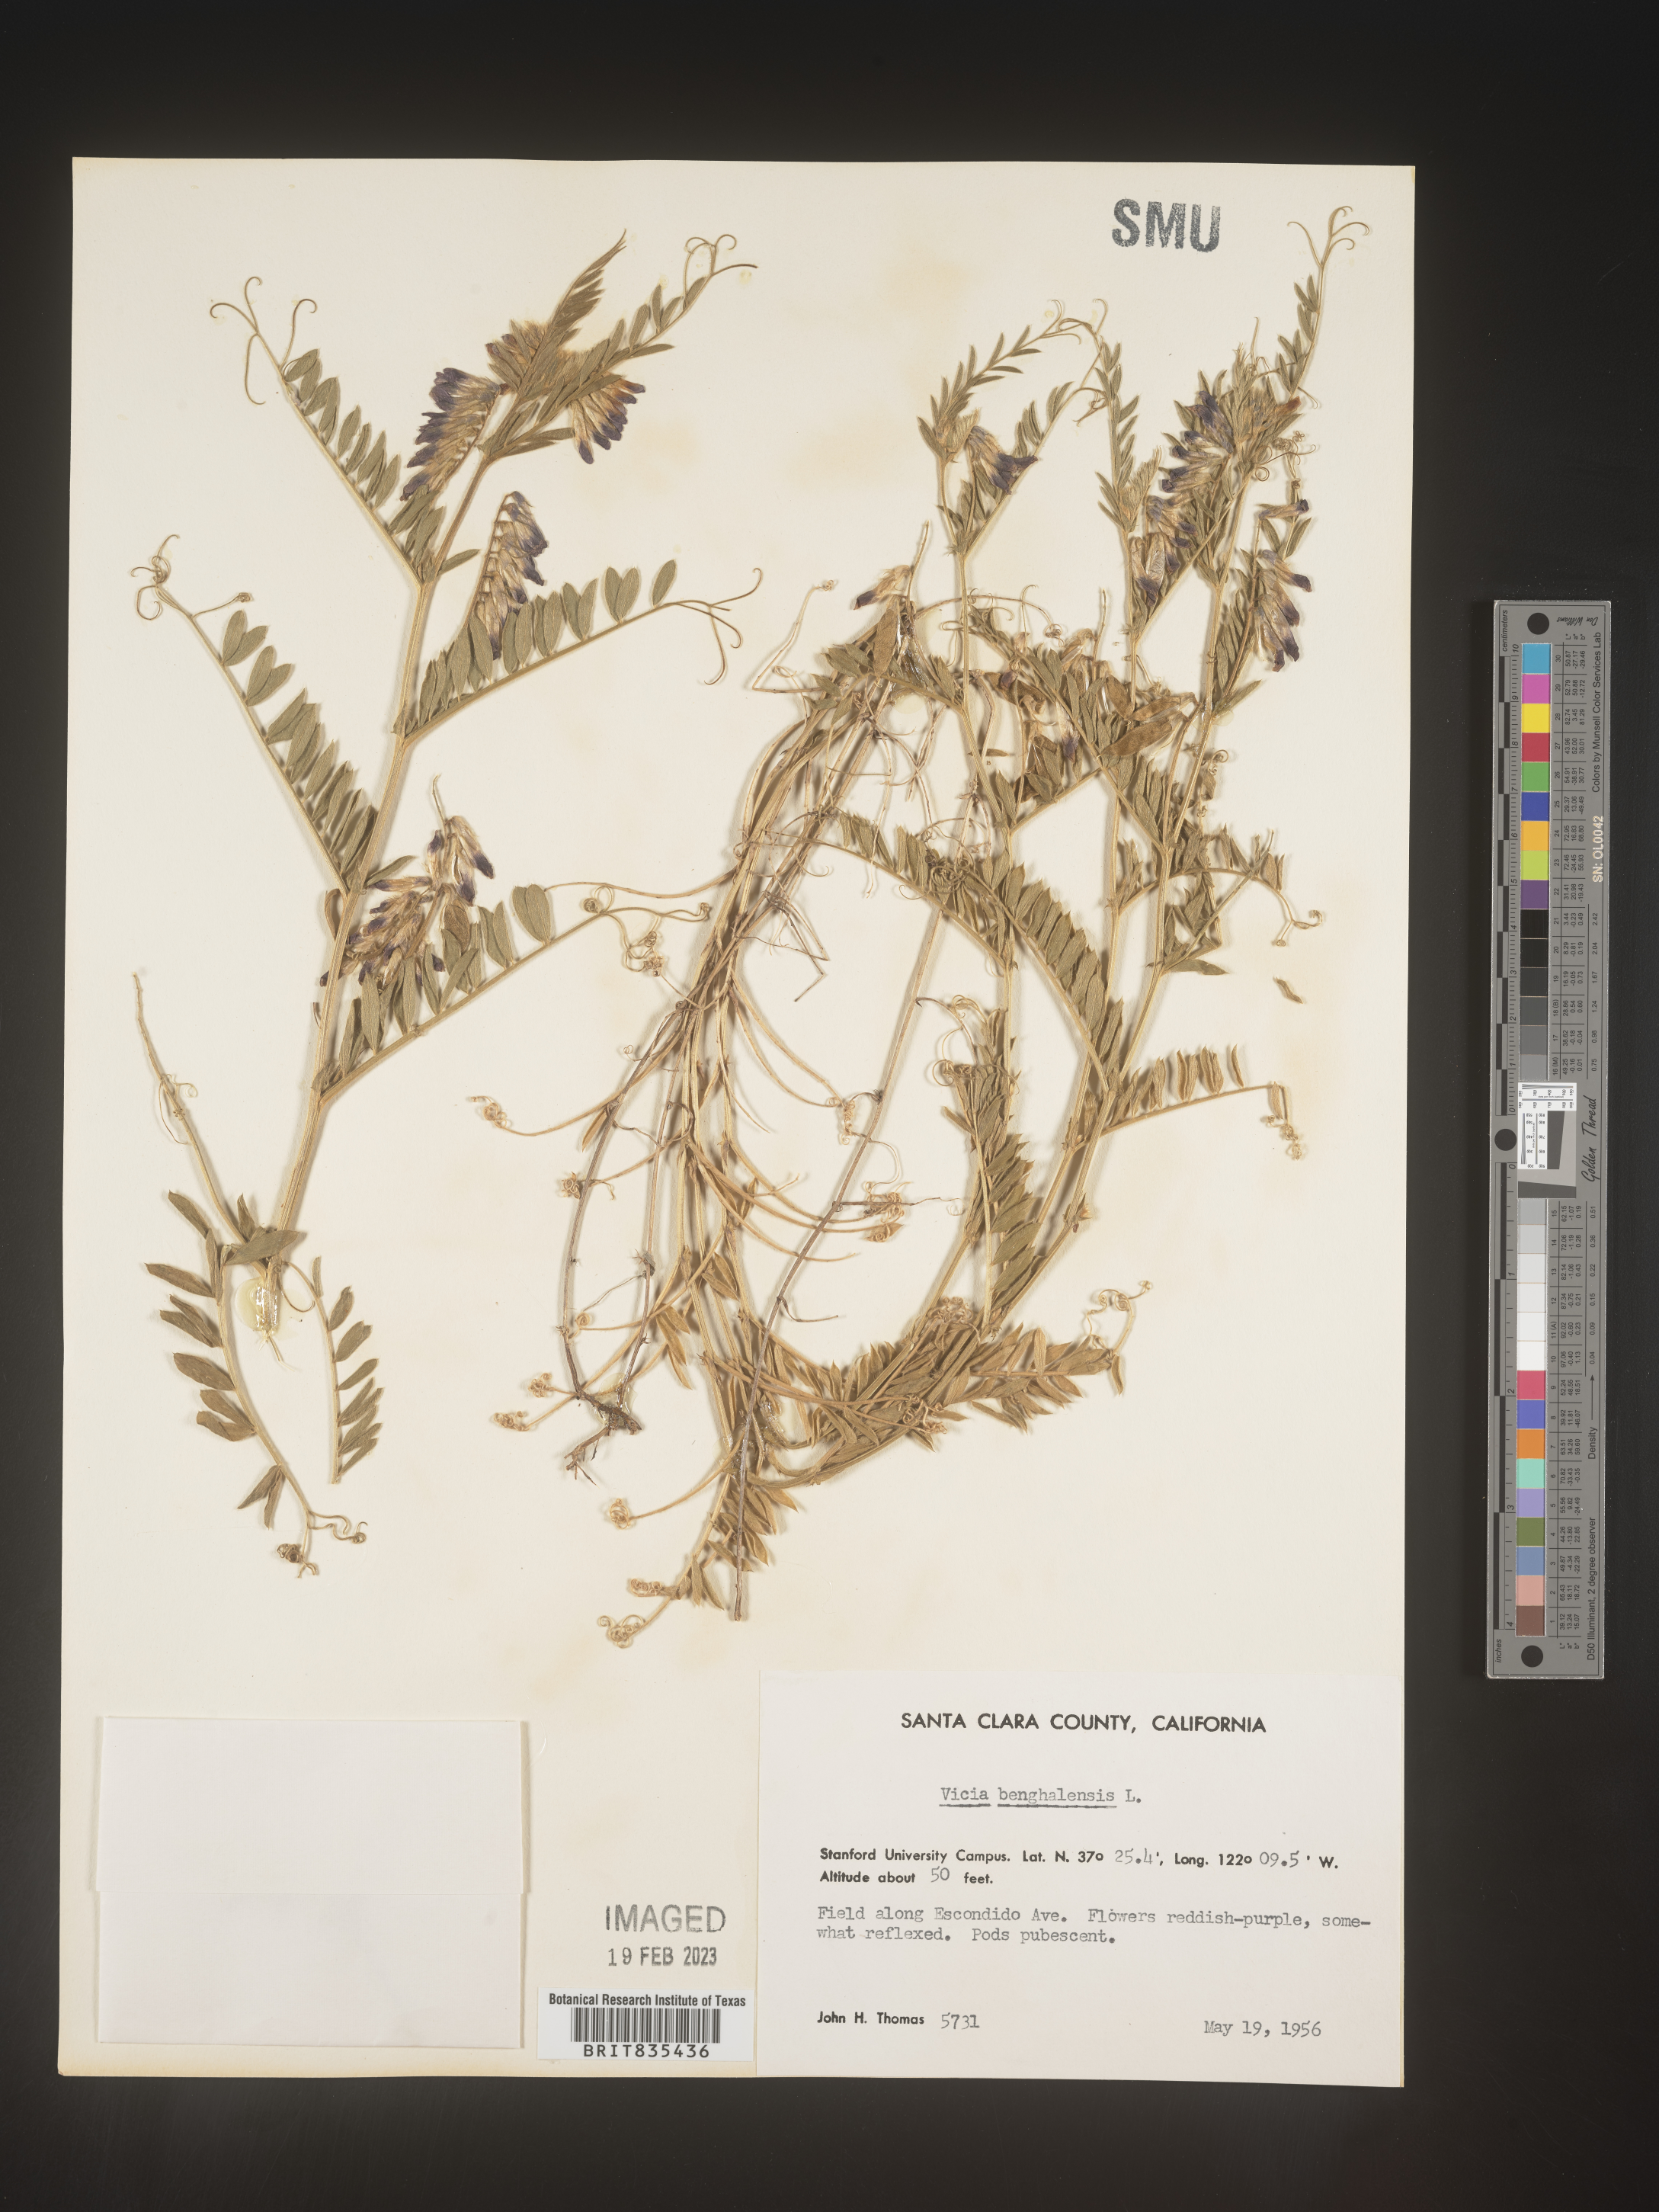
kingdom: Plantae
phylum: Tracheophyta
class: Magnoliopsida
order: Fabales
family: Fabaceae
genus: Vicia
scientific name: Vicia
